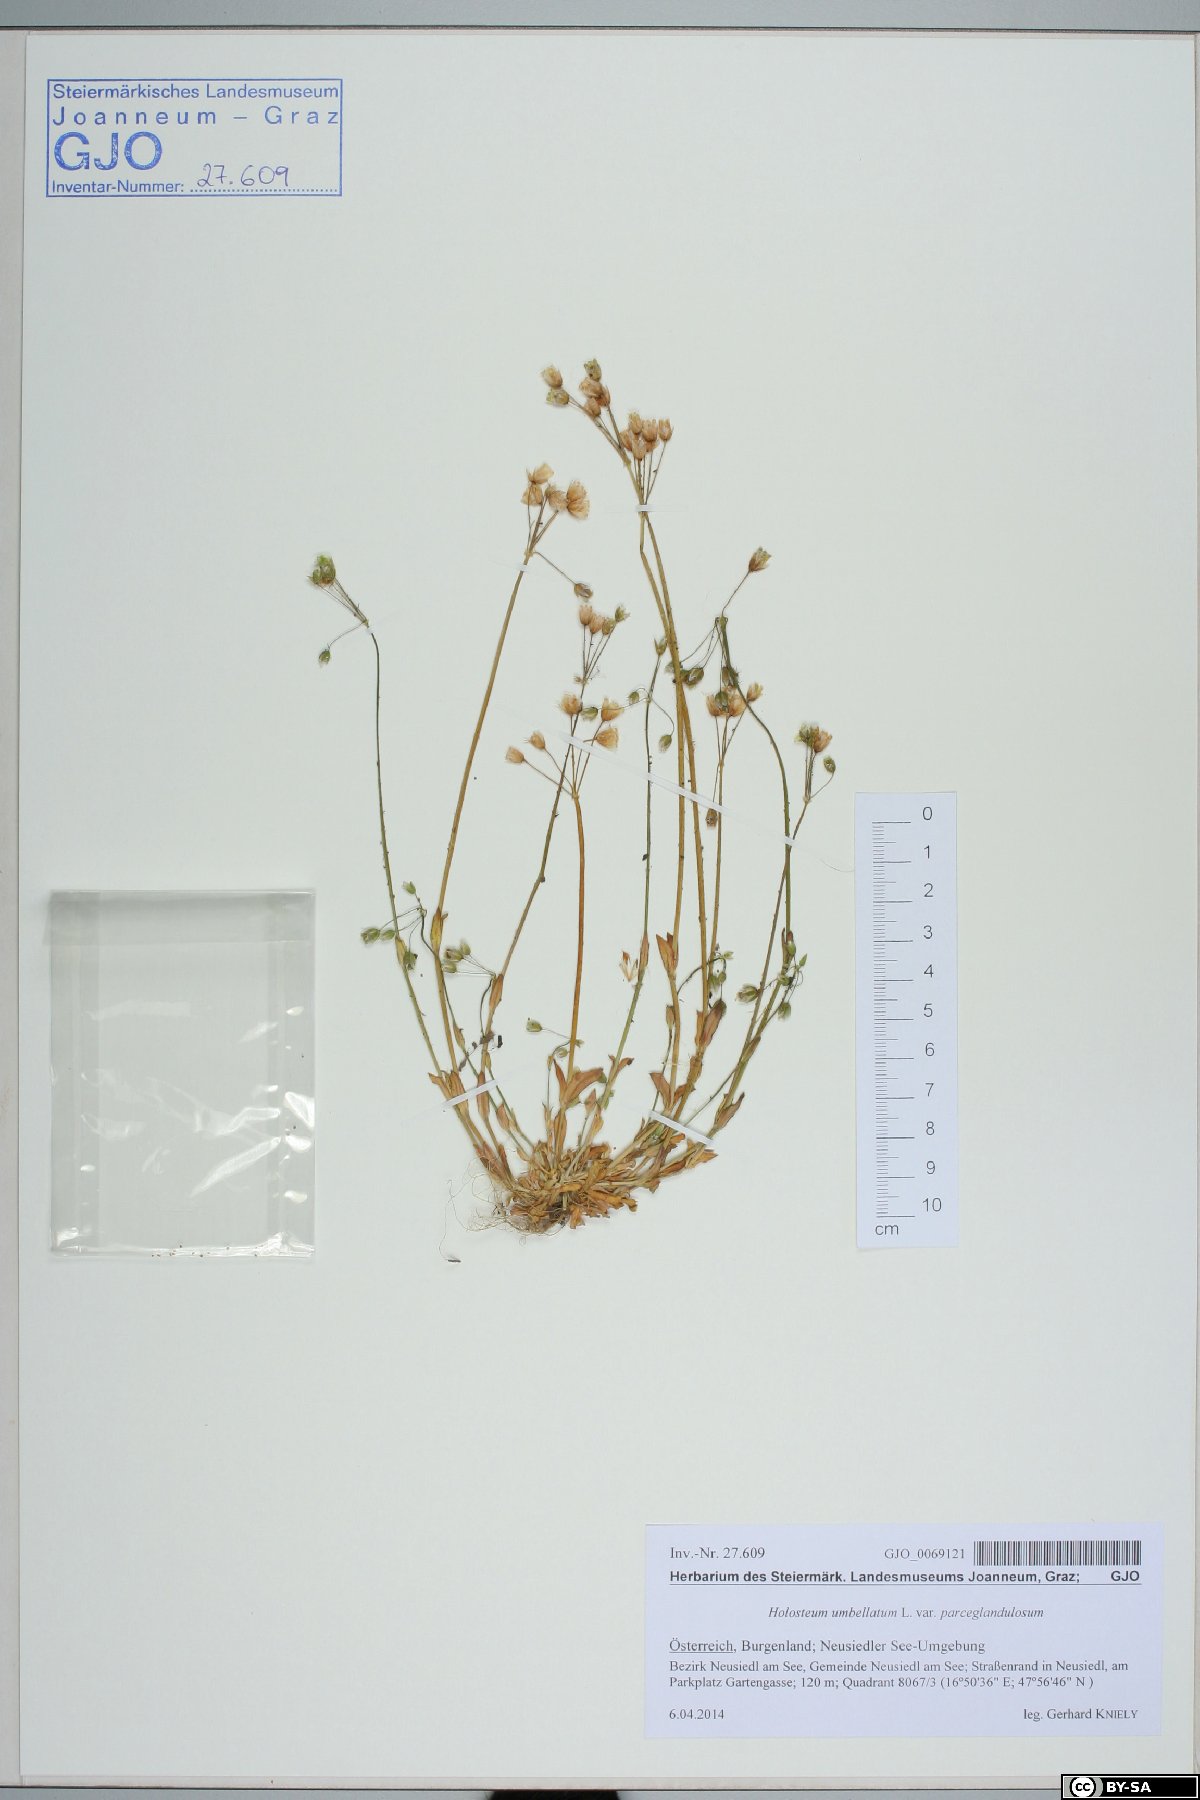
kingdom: Plantae
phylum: Tracheophyta
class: Magnoliopsida
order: Caryophyllales
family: Caryophyllaceae
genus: Holosteum
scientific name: Holosteum umbellatum
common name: Jagged chickweed
